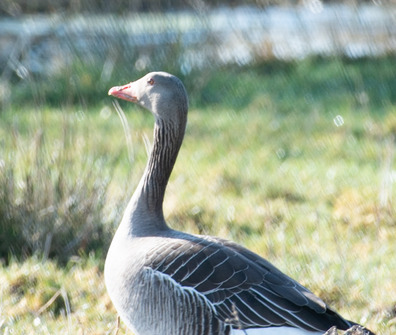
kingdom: Animalia
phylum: Chordata
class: Aves
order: Anseriformes
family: Anatidae
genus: Anser
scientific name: Anser anser
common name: Grågås
